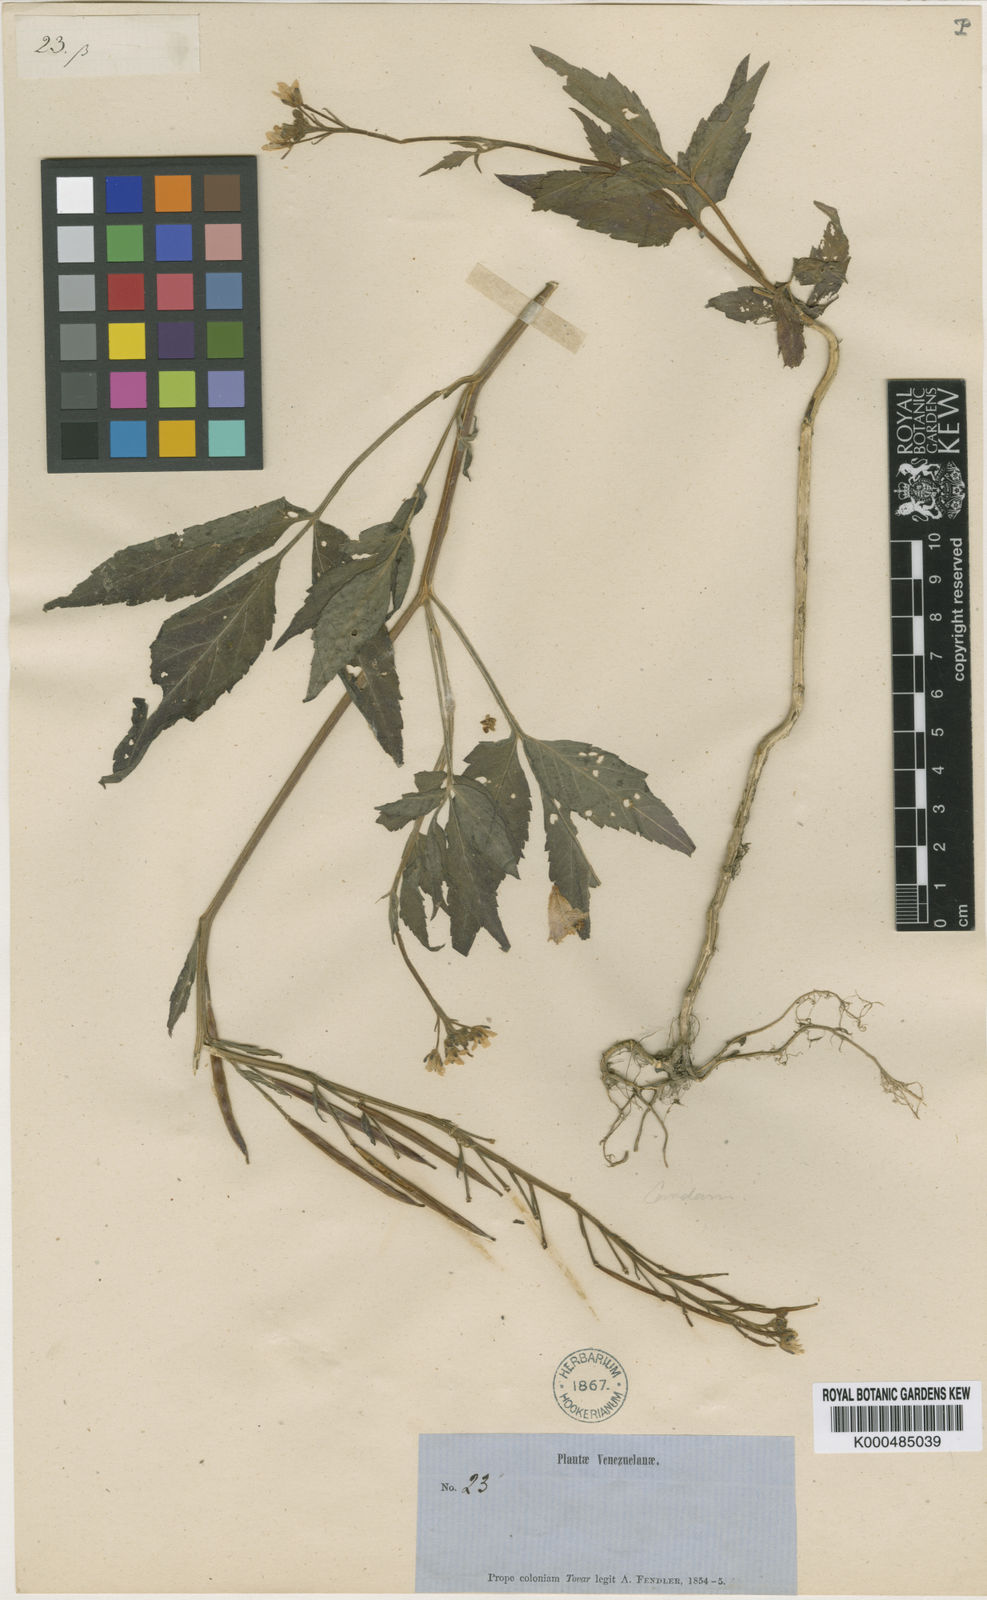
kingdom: Plantae
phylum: Tracheophyta
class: Magnoliopsida
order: Brassicales
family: Brassicaceae
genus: Cardamine
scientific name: Cardamine fulcrata
